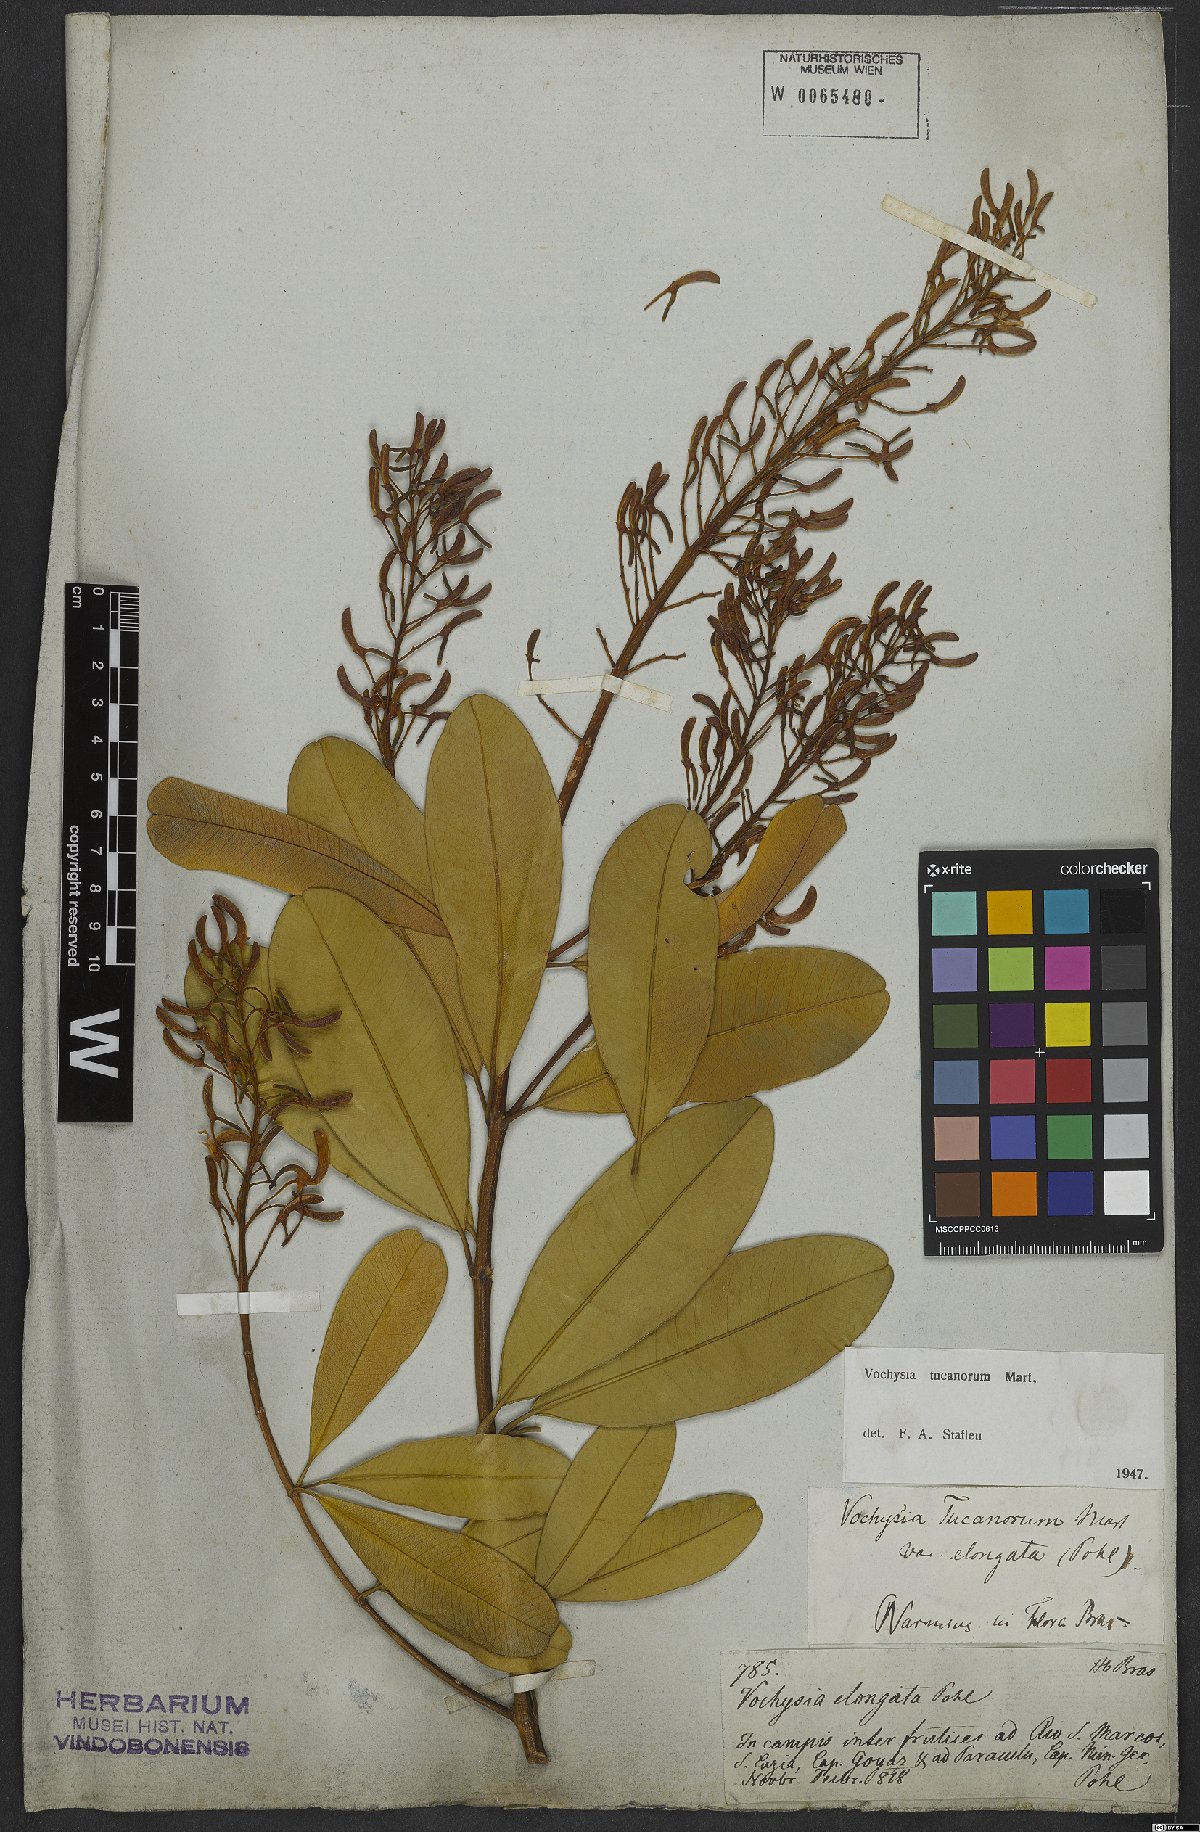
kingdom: Plantae
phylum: Tracheophyta
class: Magnoliopsida
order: Myrtales
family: Vochysiaceae
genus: Vochysia
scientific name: Vochysia tucanorum
